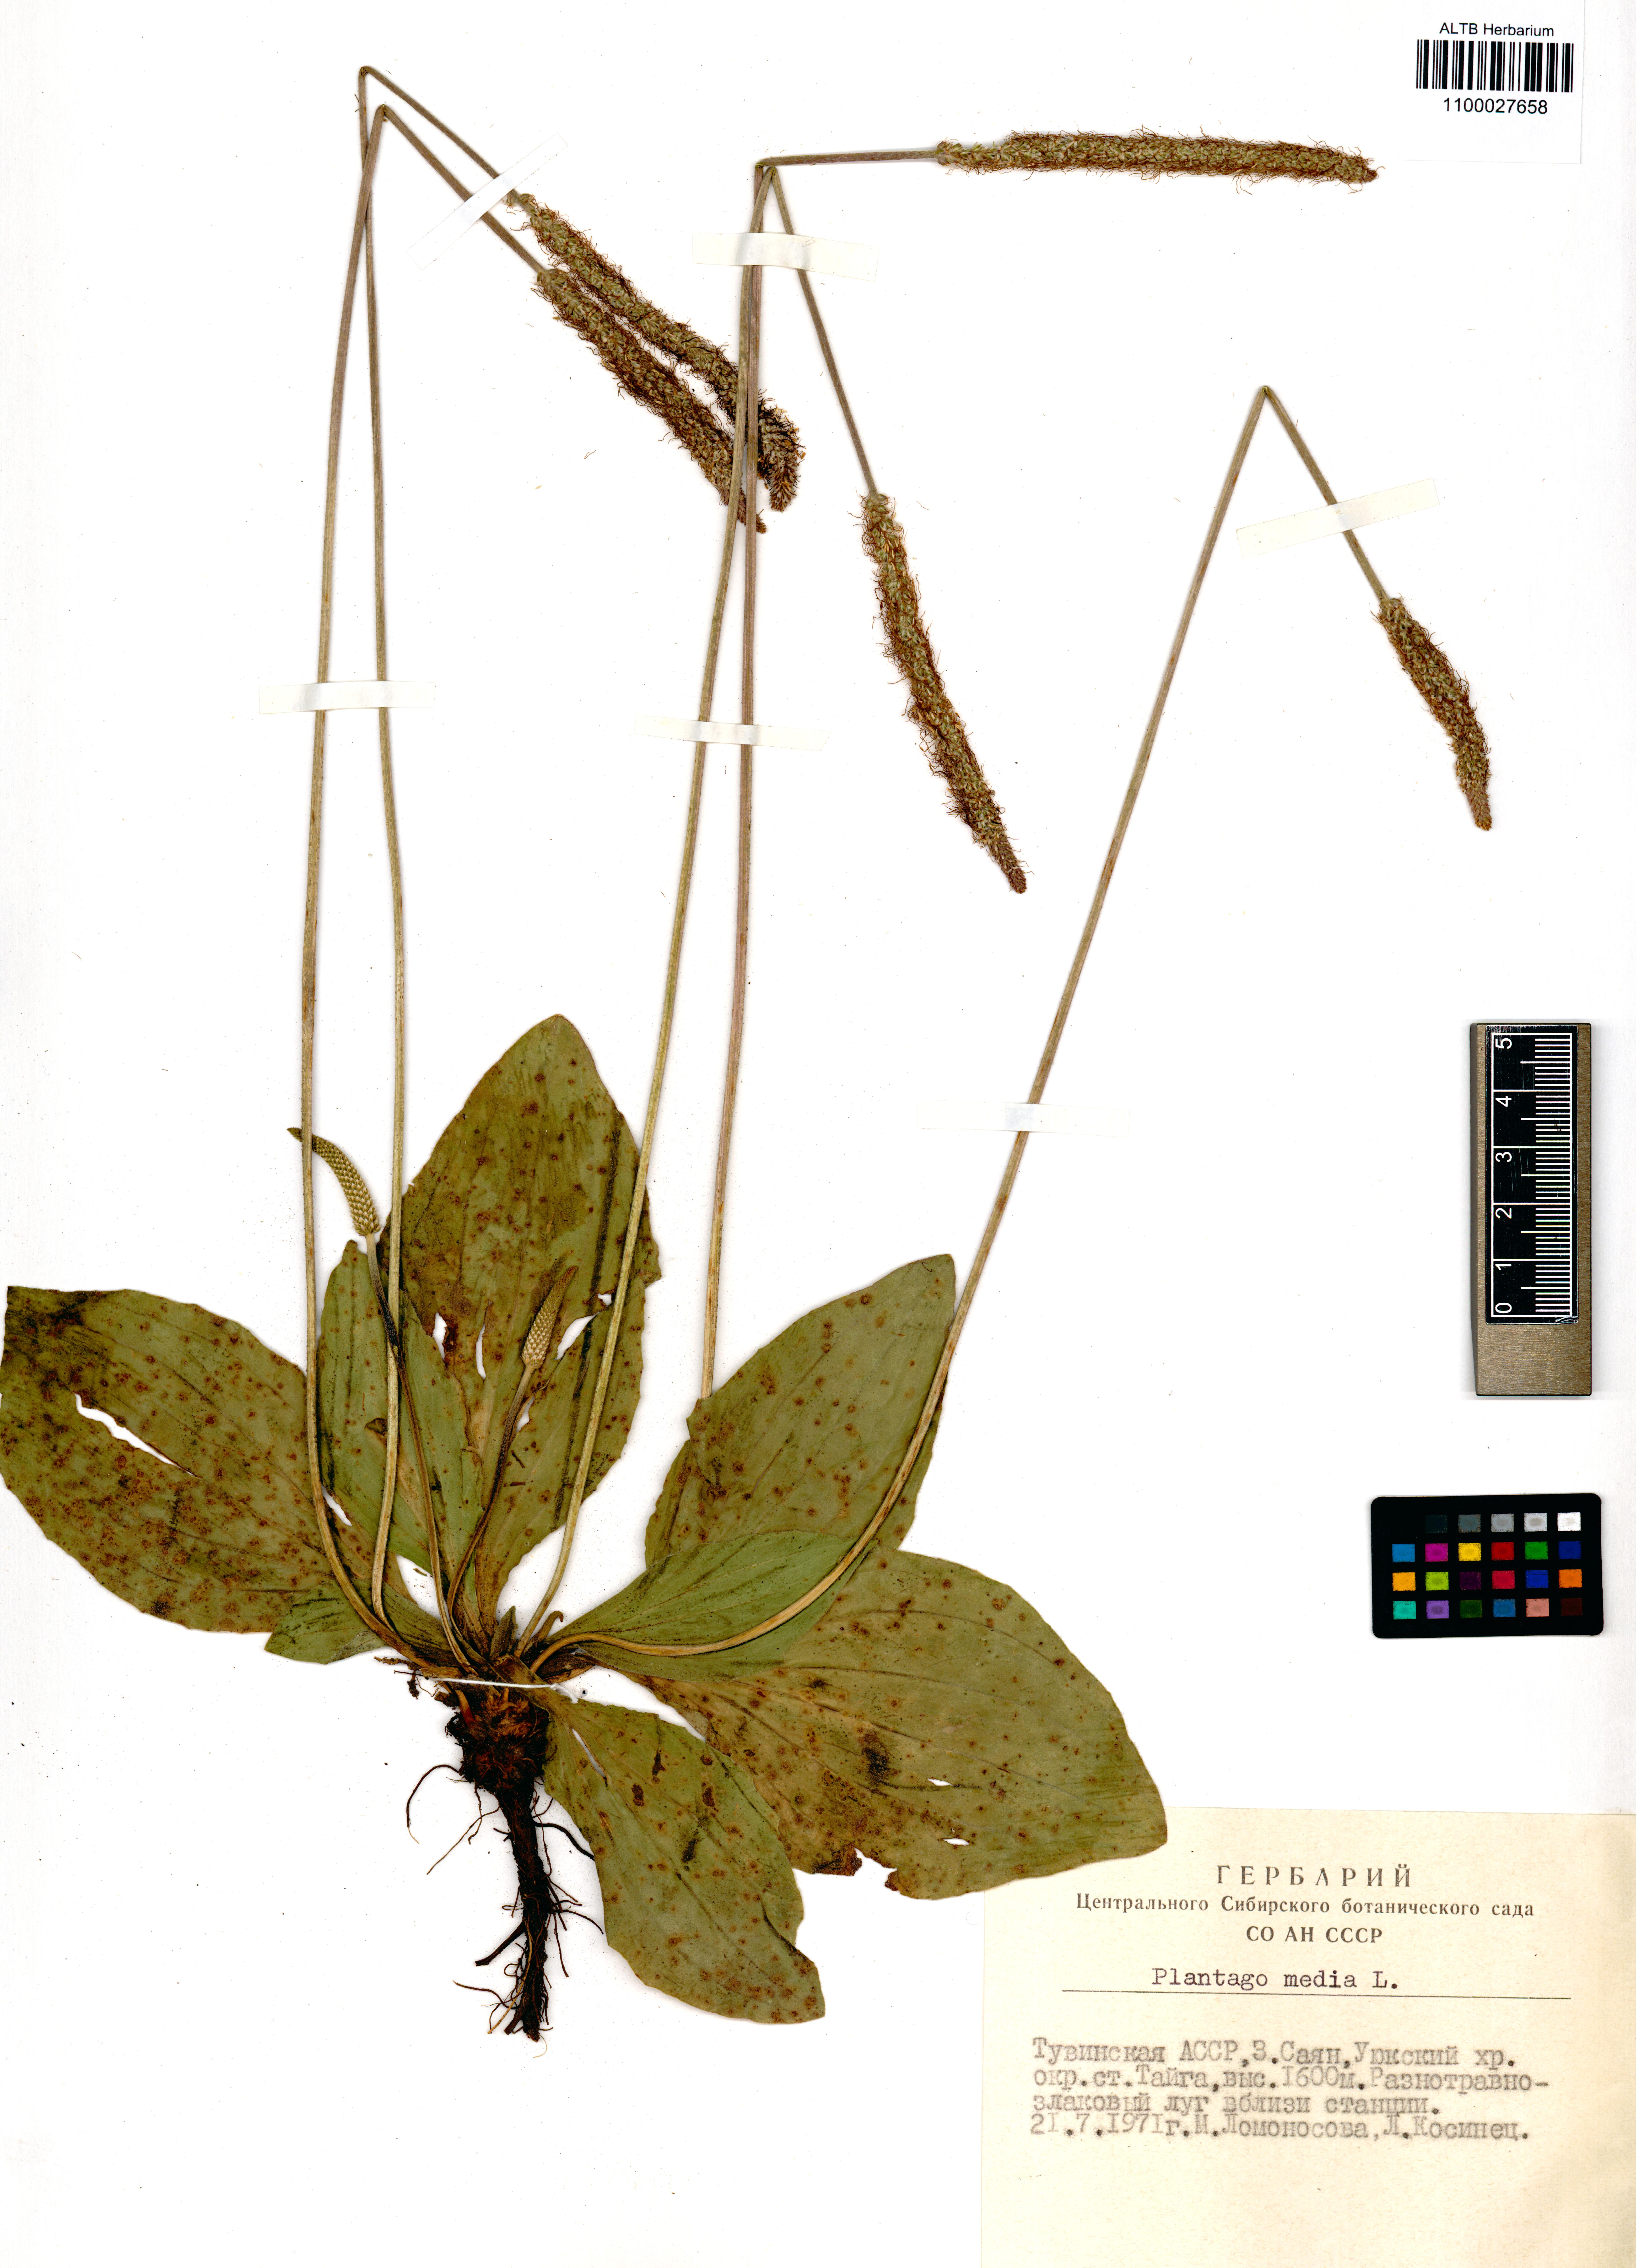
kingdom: Plantae
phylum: Tracheophyta
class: Magnoliopsida
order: Lamiales
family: Plantaginaceae
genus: Plantago
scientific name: Plantago media
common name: Hoary plantain
